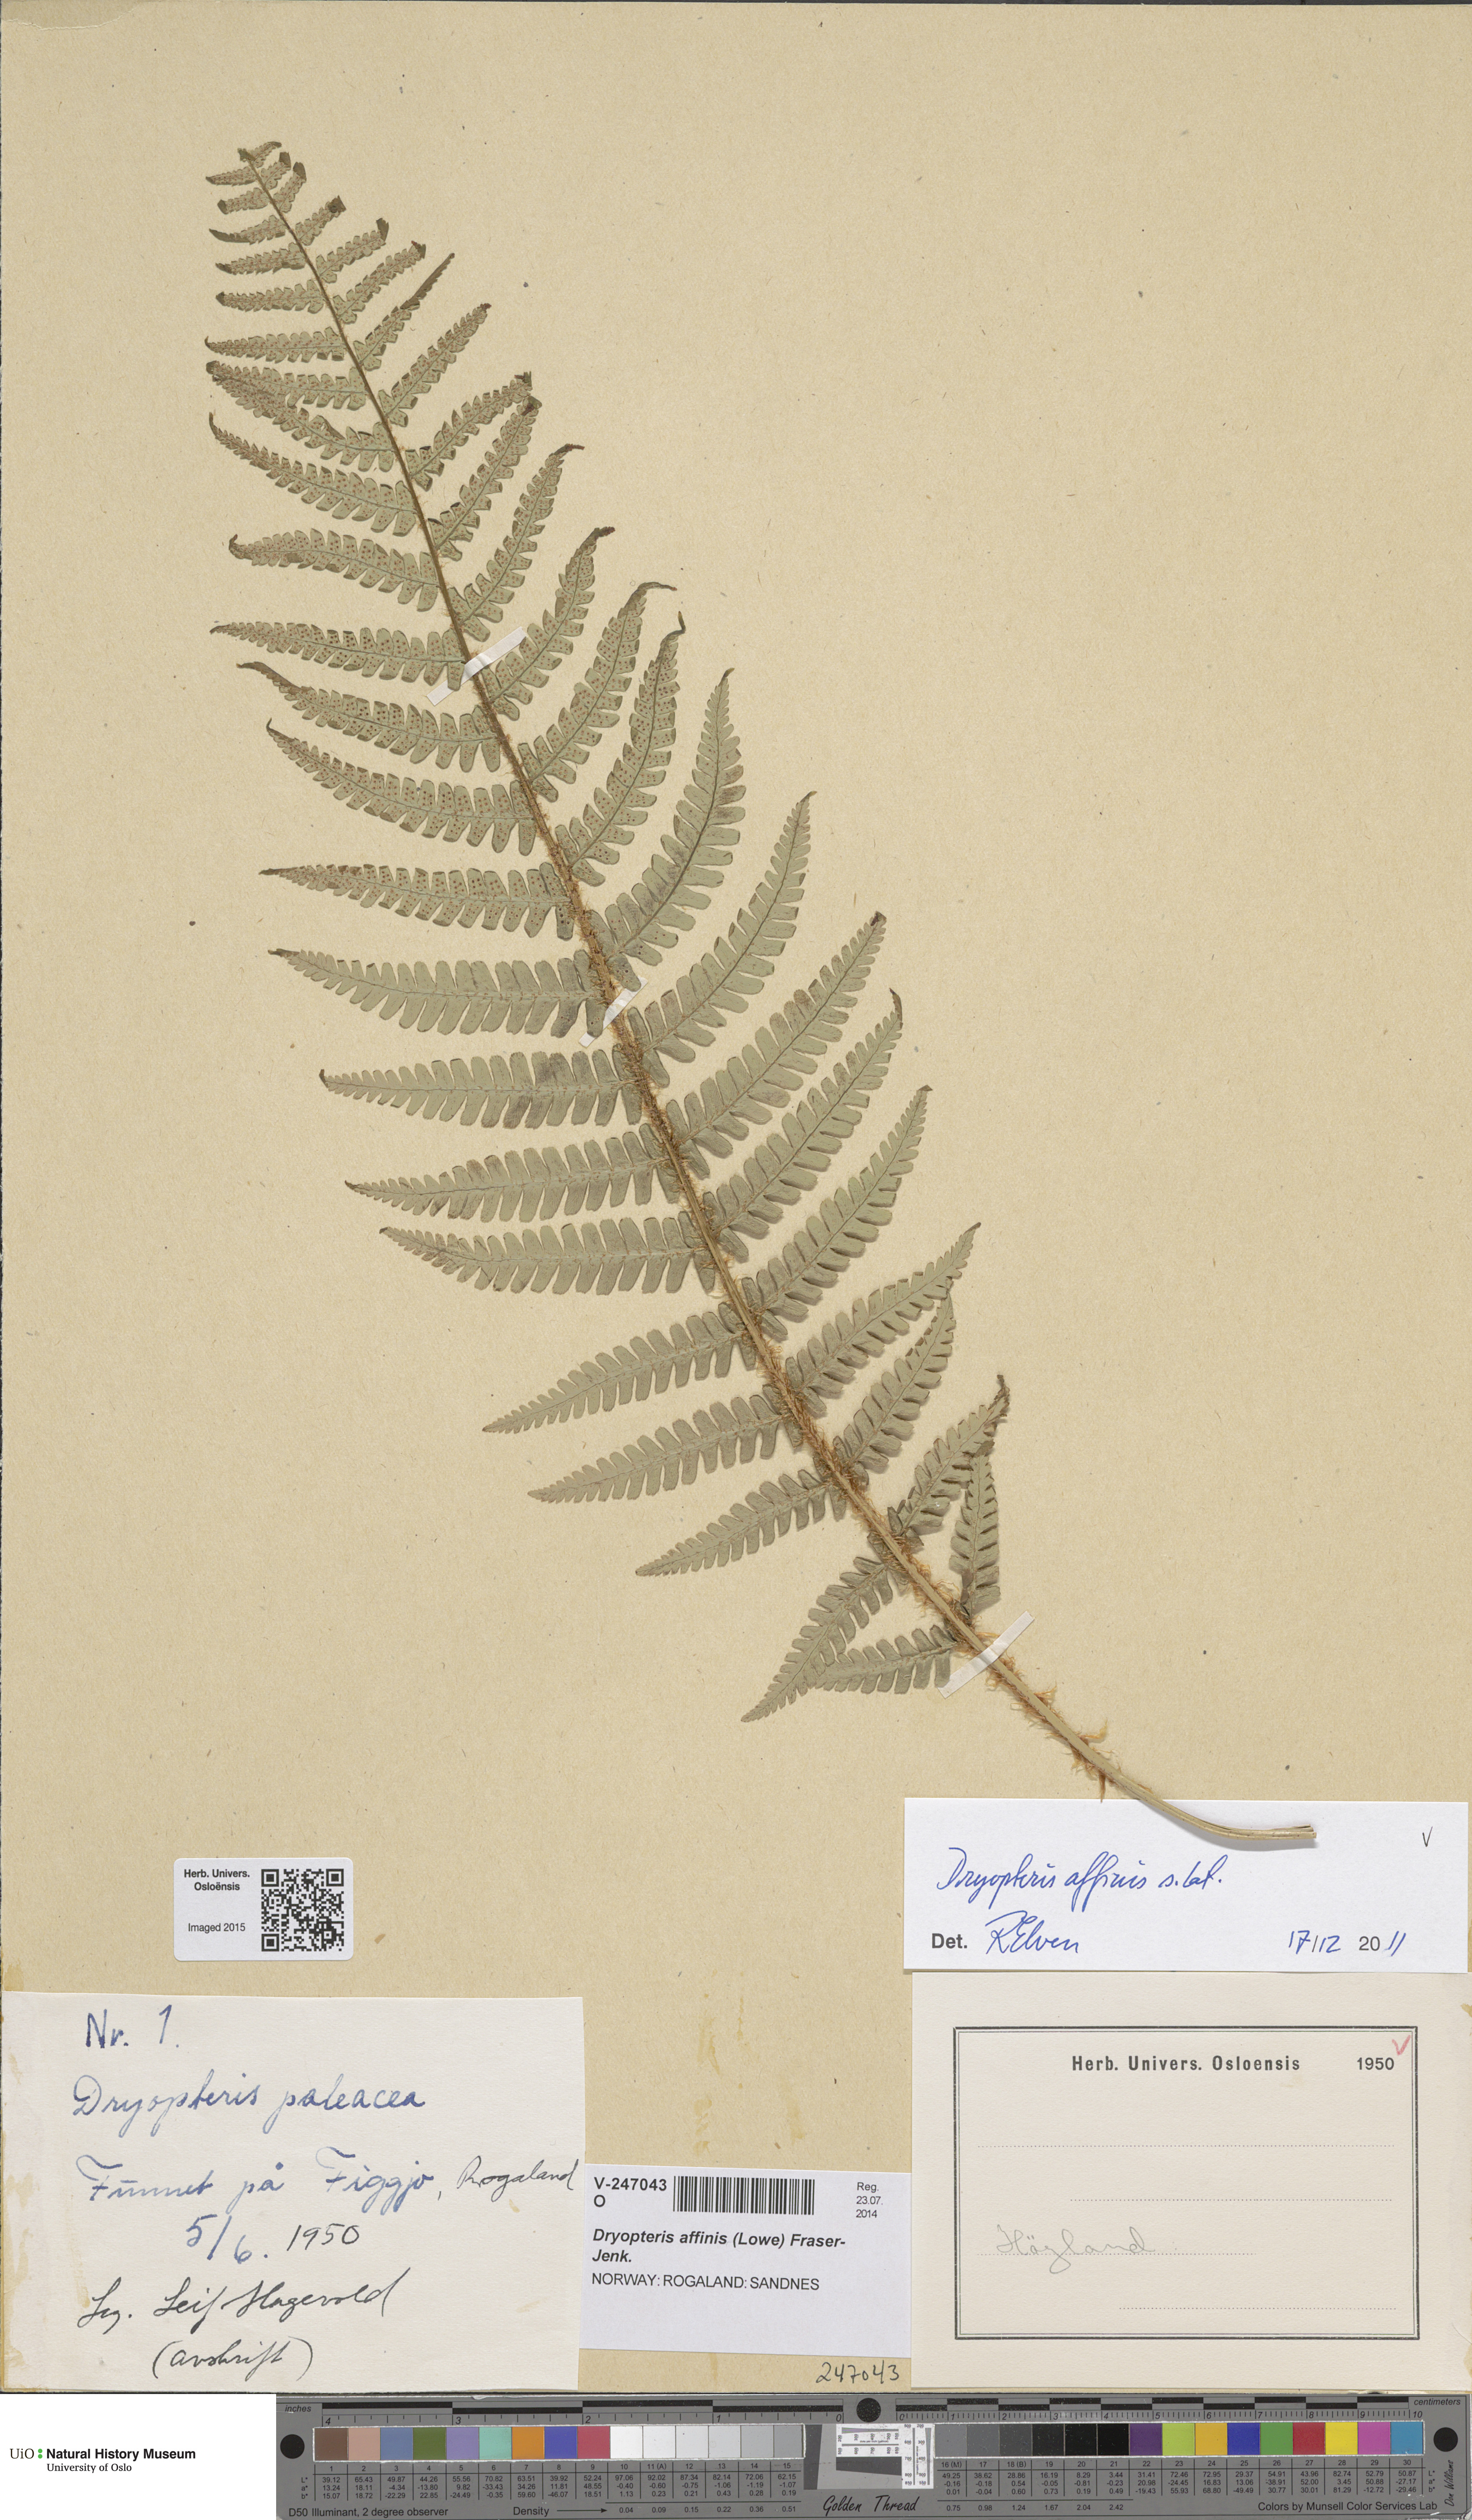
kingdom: Plantae
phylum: Tracheophyta
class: Polypodiopsida
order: Polypodiales
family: Dryopteridaceae
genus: Dryopteris
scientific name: Dryopteris affinis
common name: Scaly male fern
